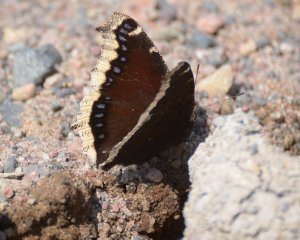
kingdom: Animalia
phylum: Arthropoda
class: Insecta
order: Lepidoptera
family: Nymphalidae
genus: Nymphalis
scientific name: Nymphalis antiopa
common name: Mourning Cloak
